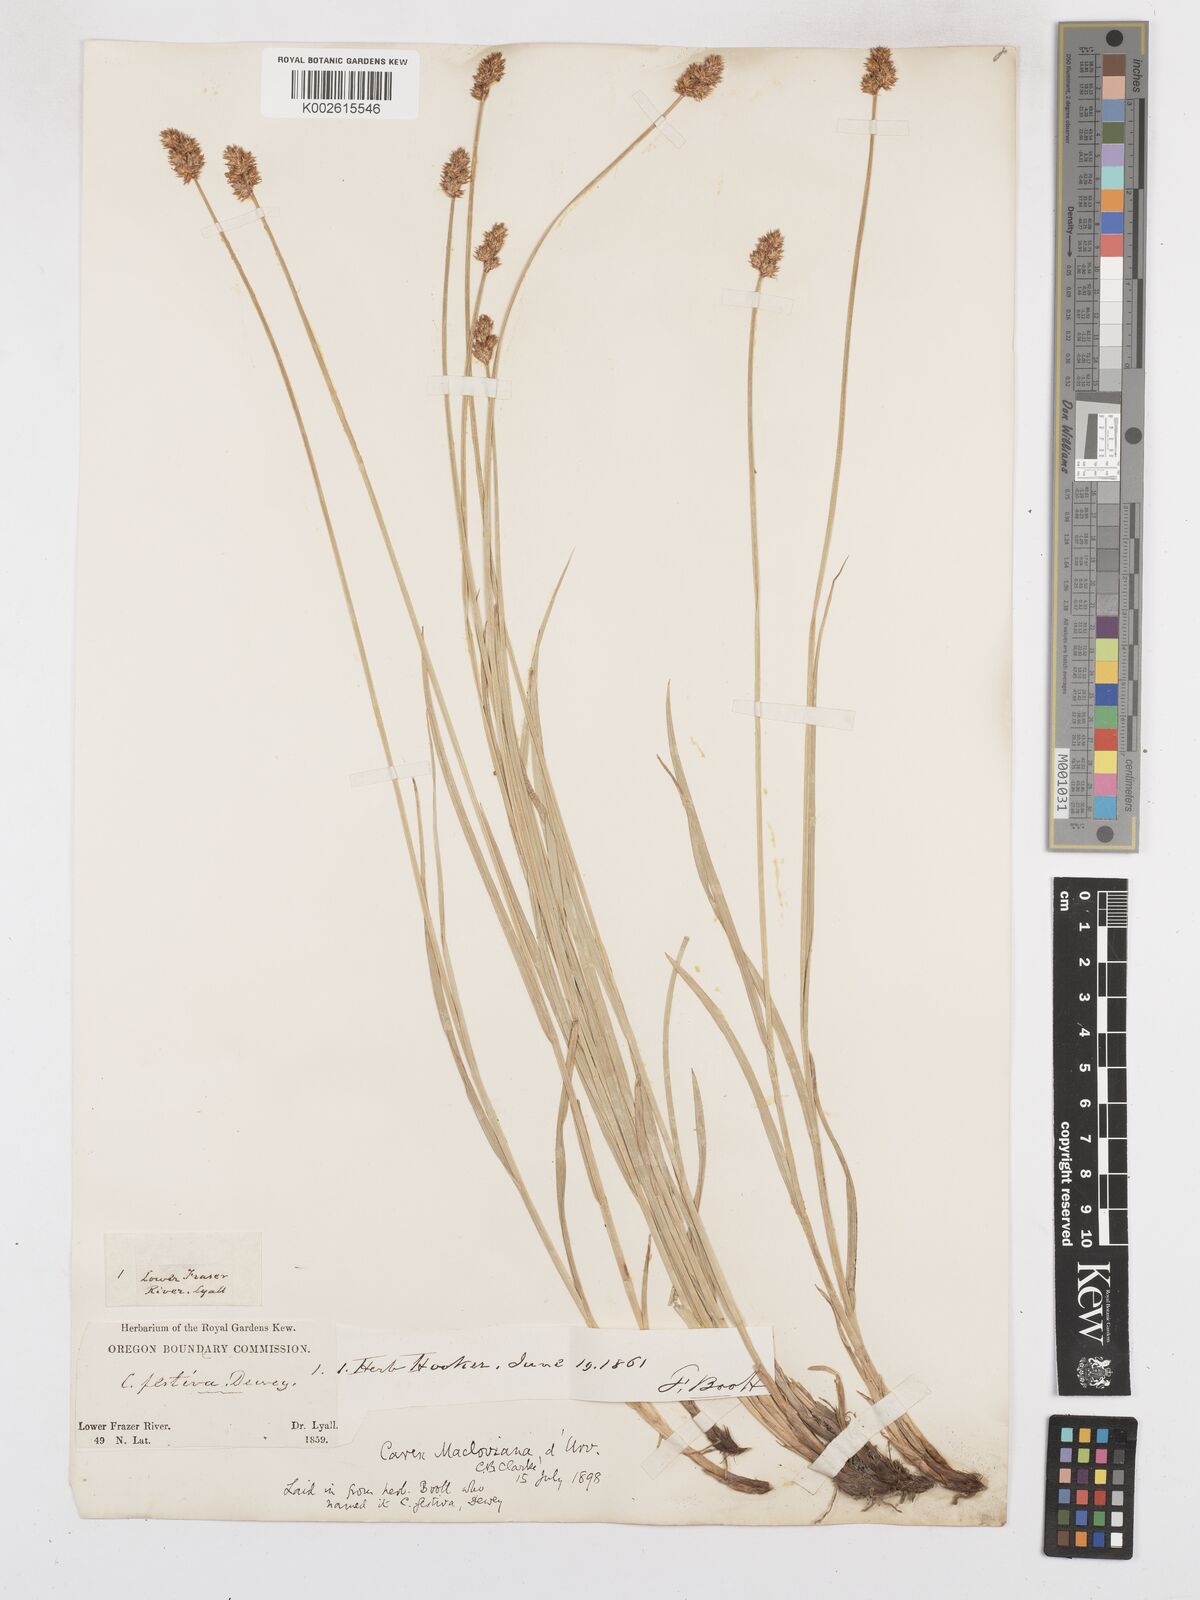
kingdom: Plantae
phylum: Tracheophyta
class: Liliopsida
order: Poales
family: Cyperaceae
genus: Carex
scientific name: Carex subfusca
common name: Brown sedge
